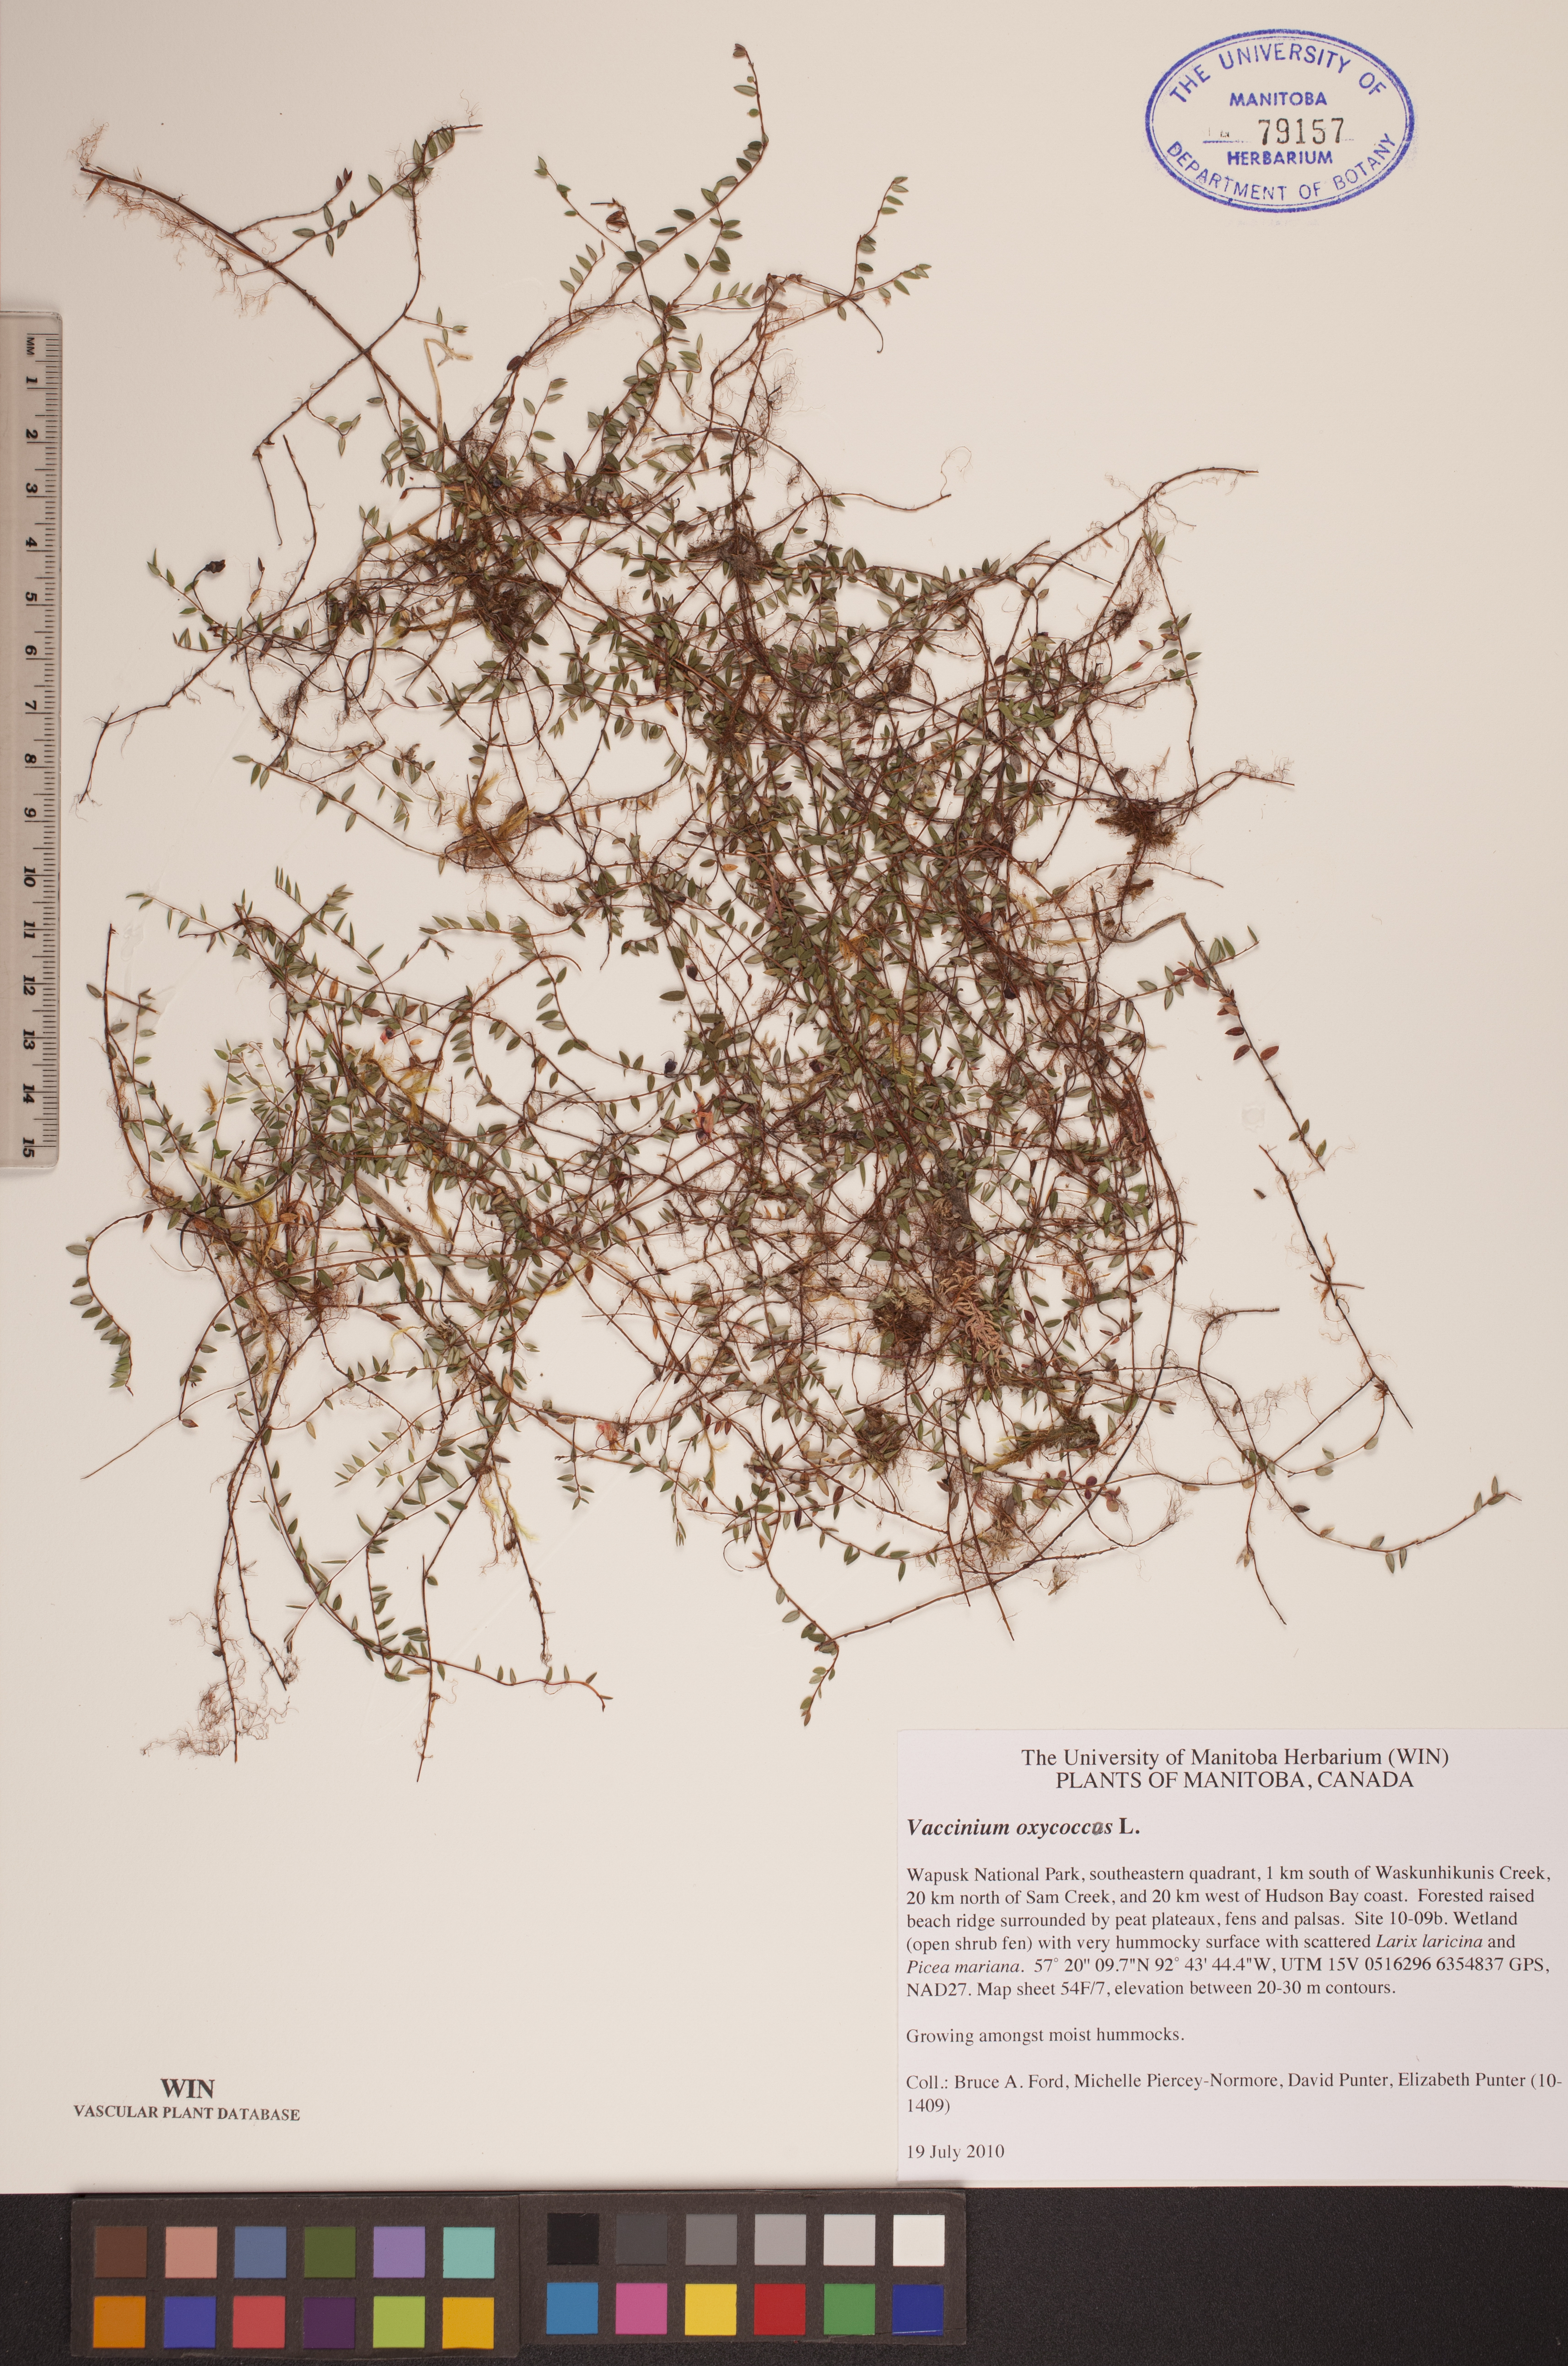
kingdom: Plantae
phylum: Tracheophyta
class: Magnoliopsida
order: Ericales
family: Ericaceae
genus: Vaccinium
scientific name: Vaccinium oxycoccos
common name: Cranberry
